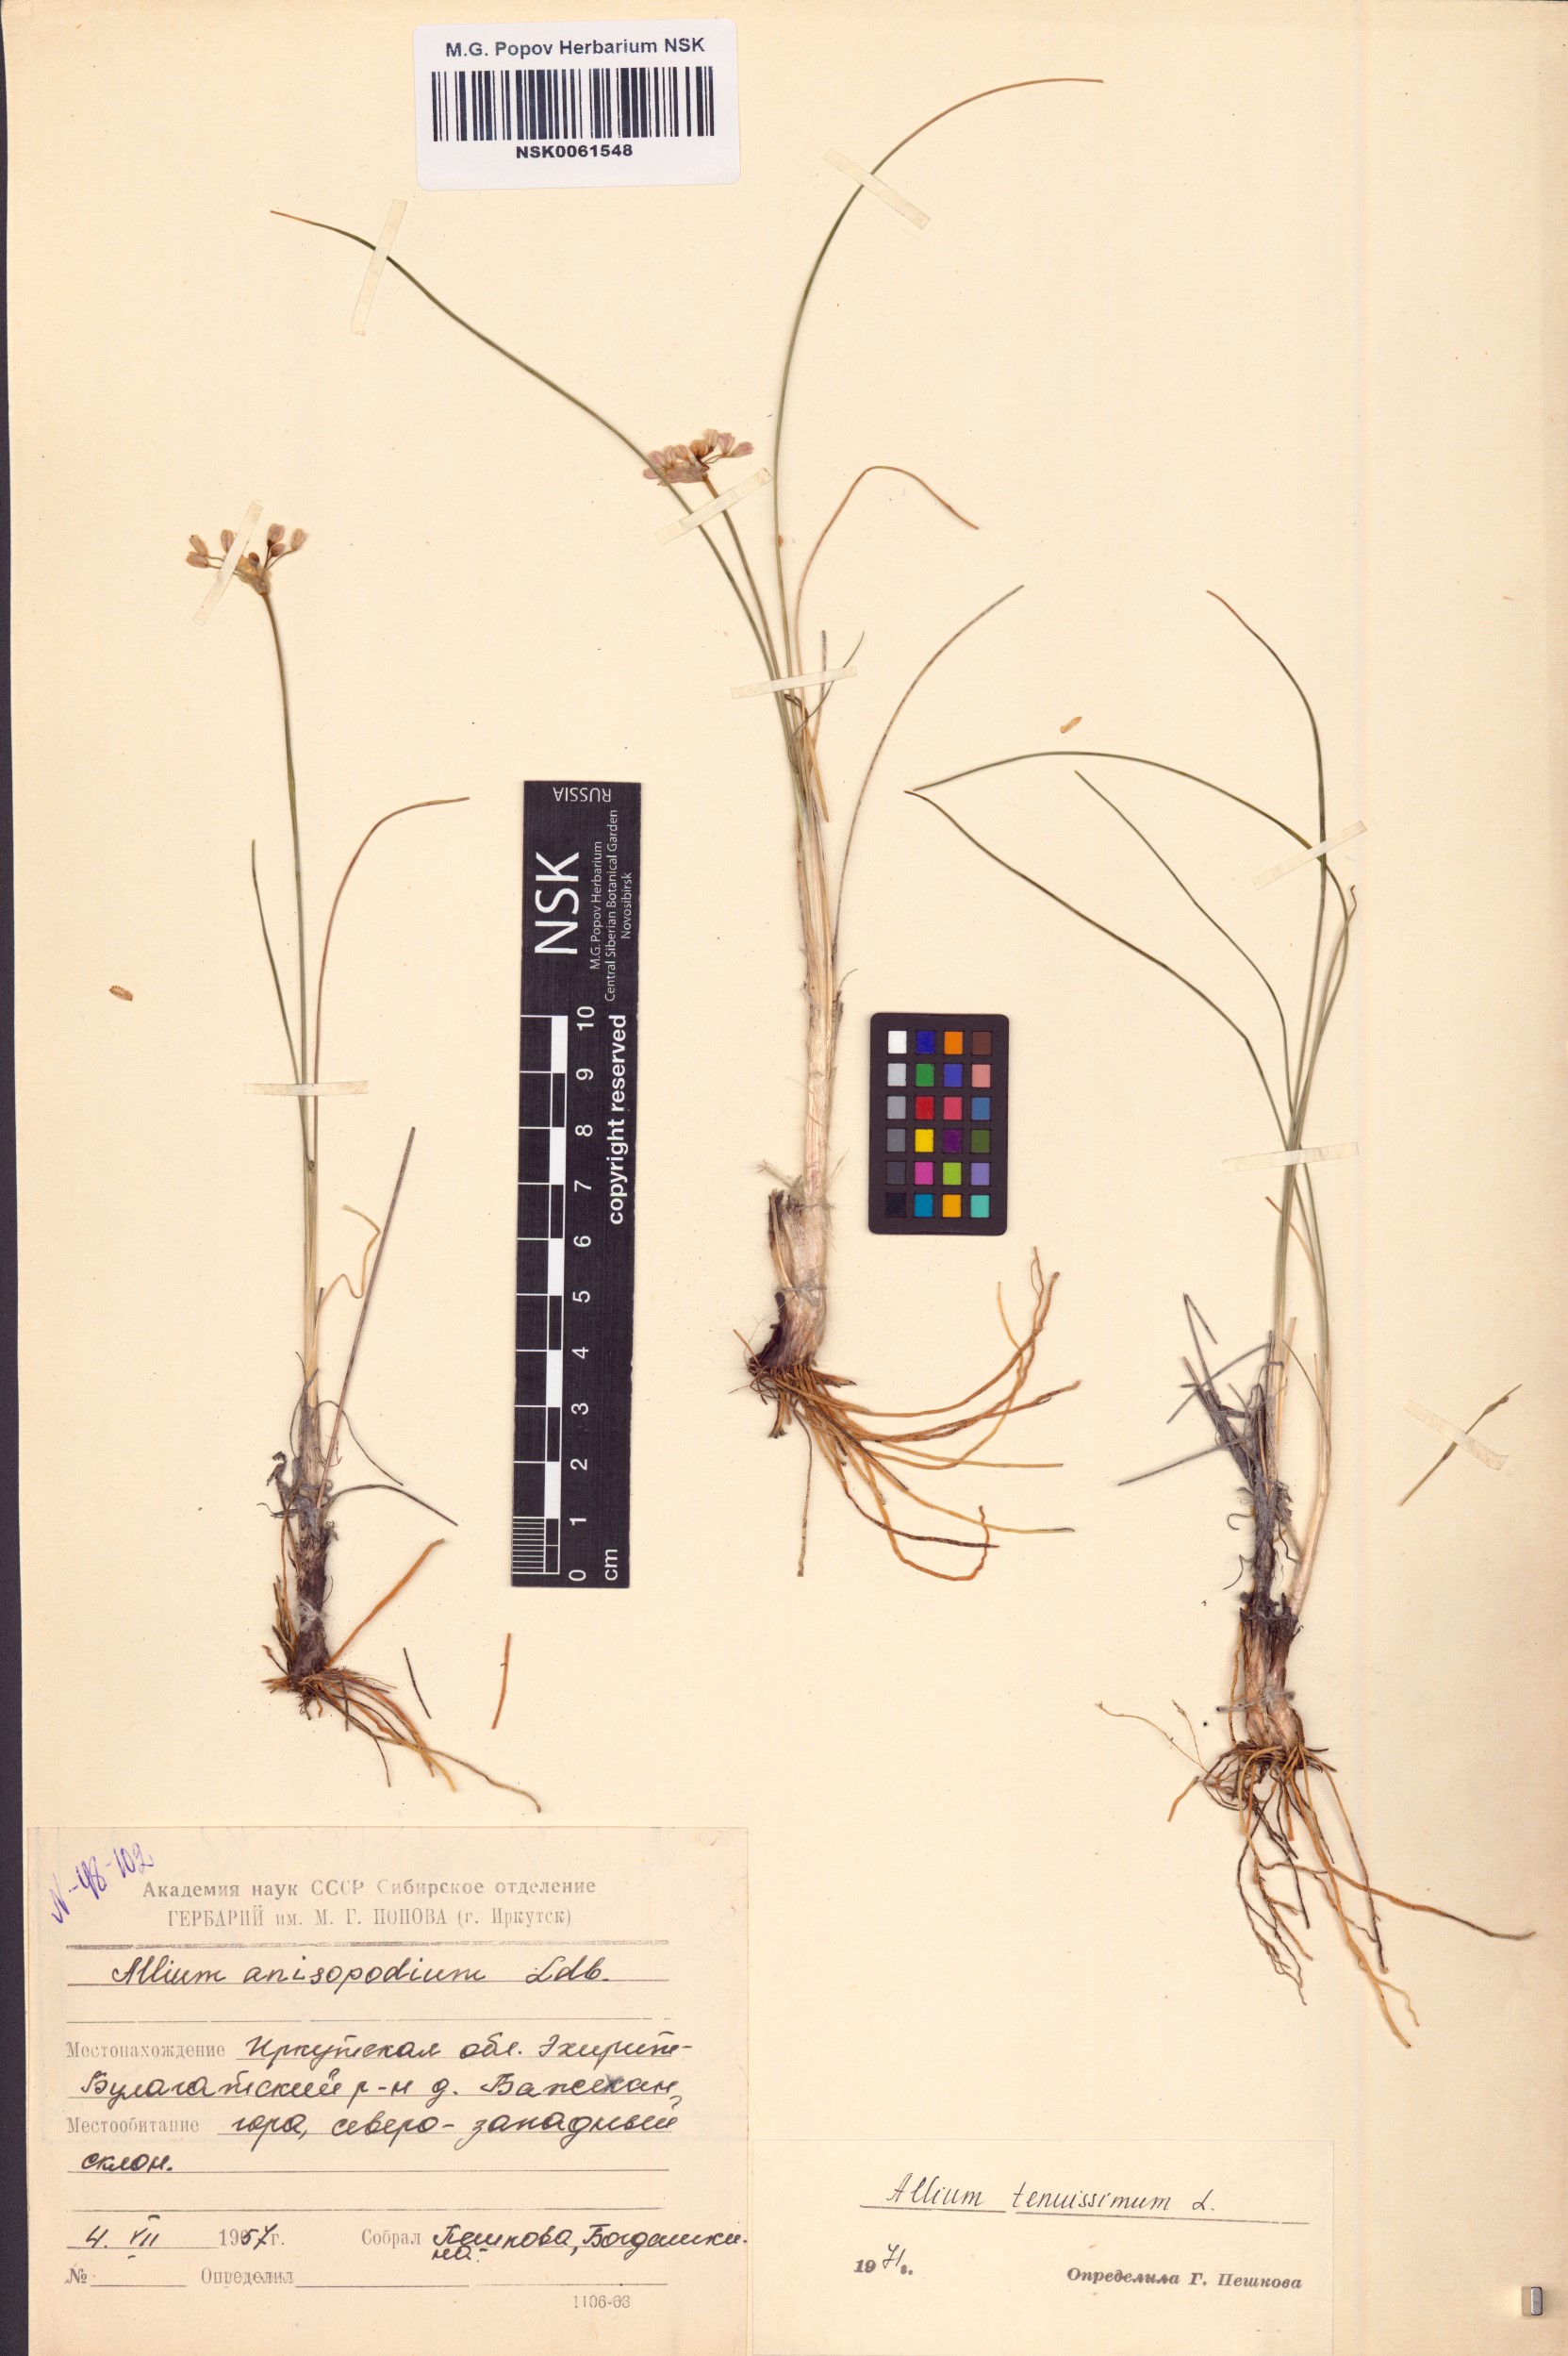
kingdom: Plantae
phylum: Tracheophyta
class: Liliopsida
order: Asparagales
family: Amaryllidaceae
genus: Allium
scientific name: Allium tenuissimum
